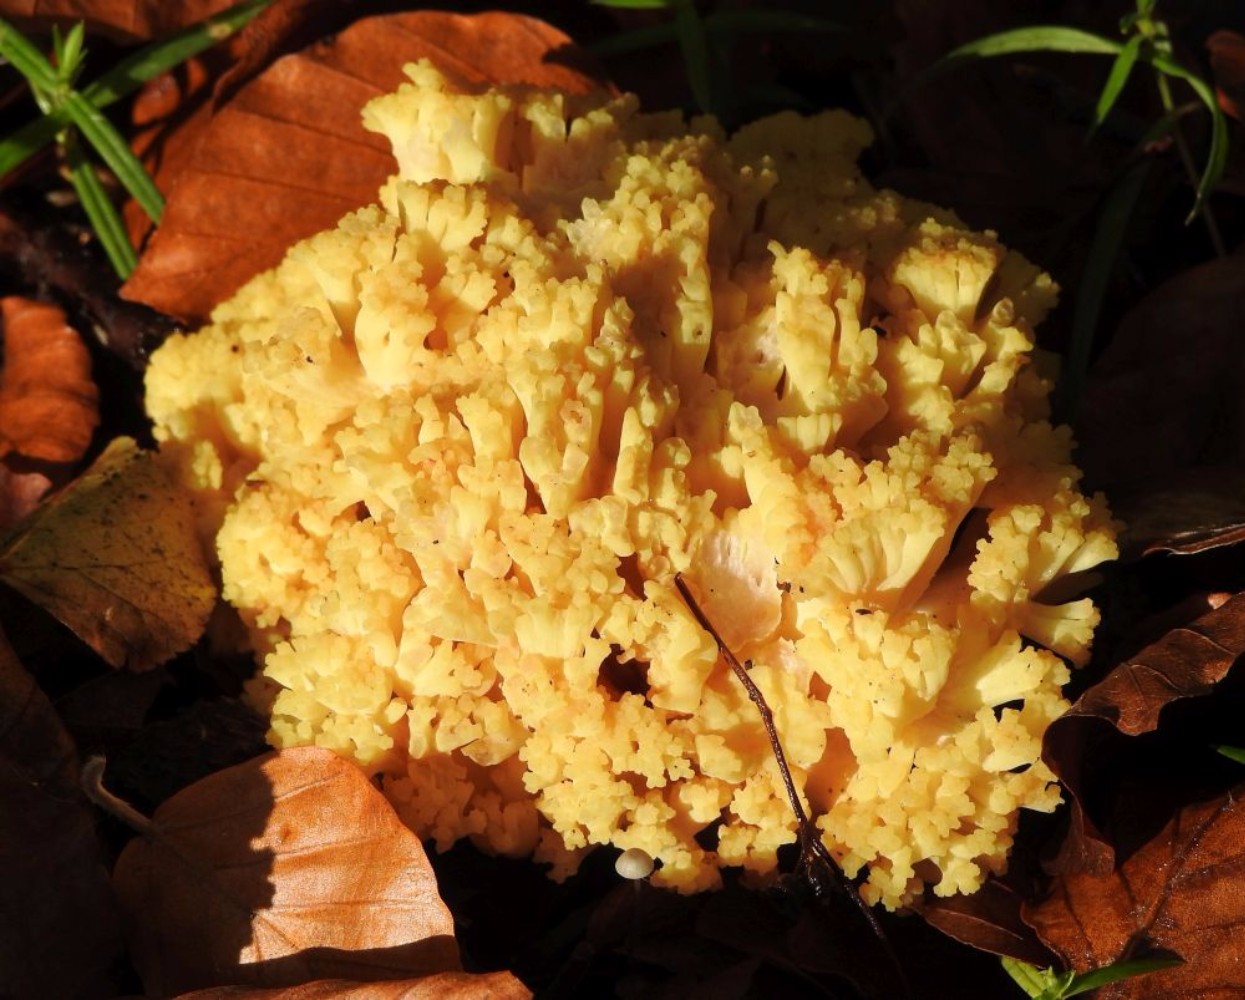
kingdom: Fungi
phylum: Basidiomycota
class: Agaricomycetes
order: Gomphales
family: Gomphaceae
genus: Ramaria
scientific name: Ramaria sanguinea
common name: blodplettet koralsvamp
